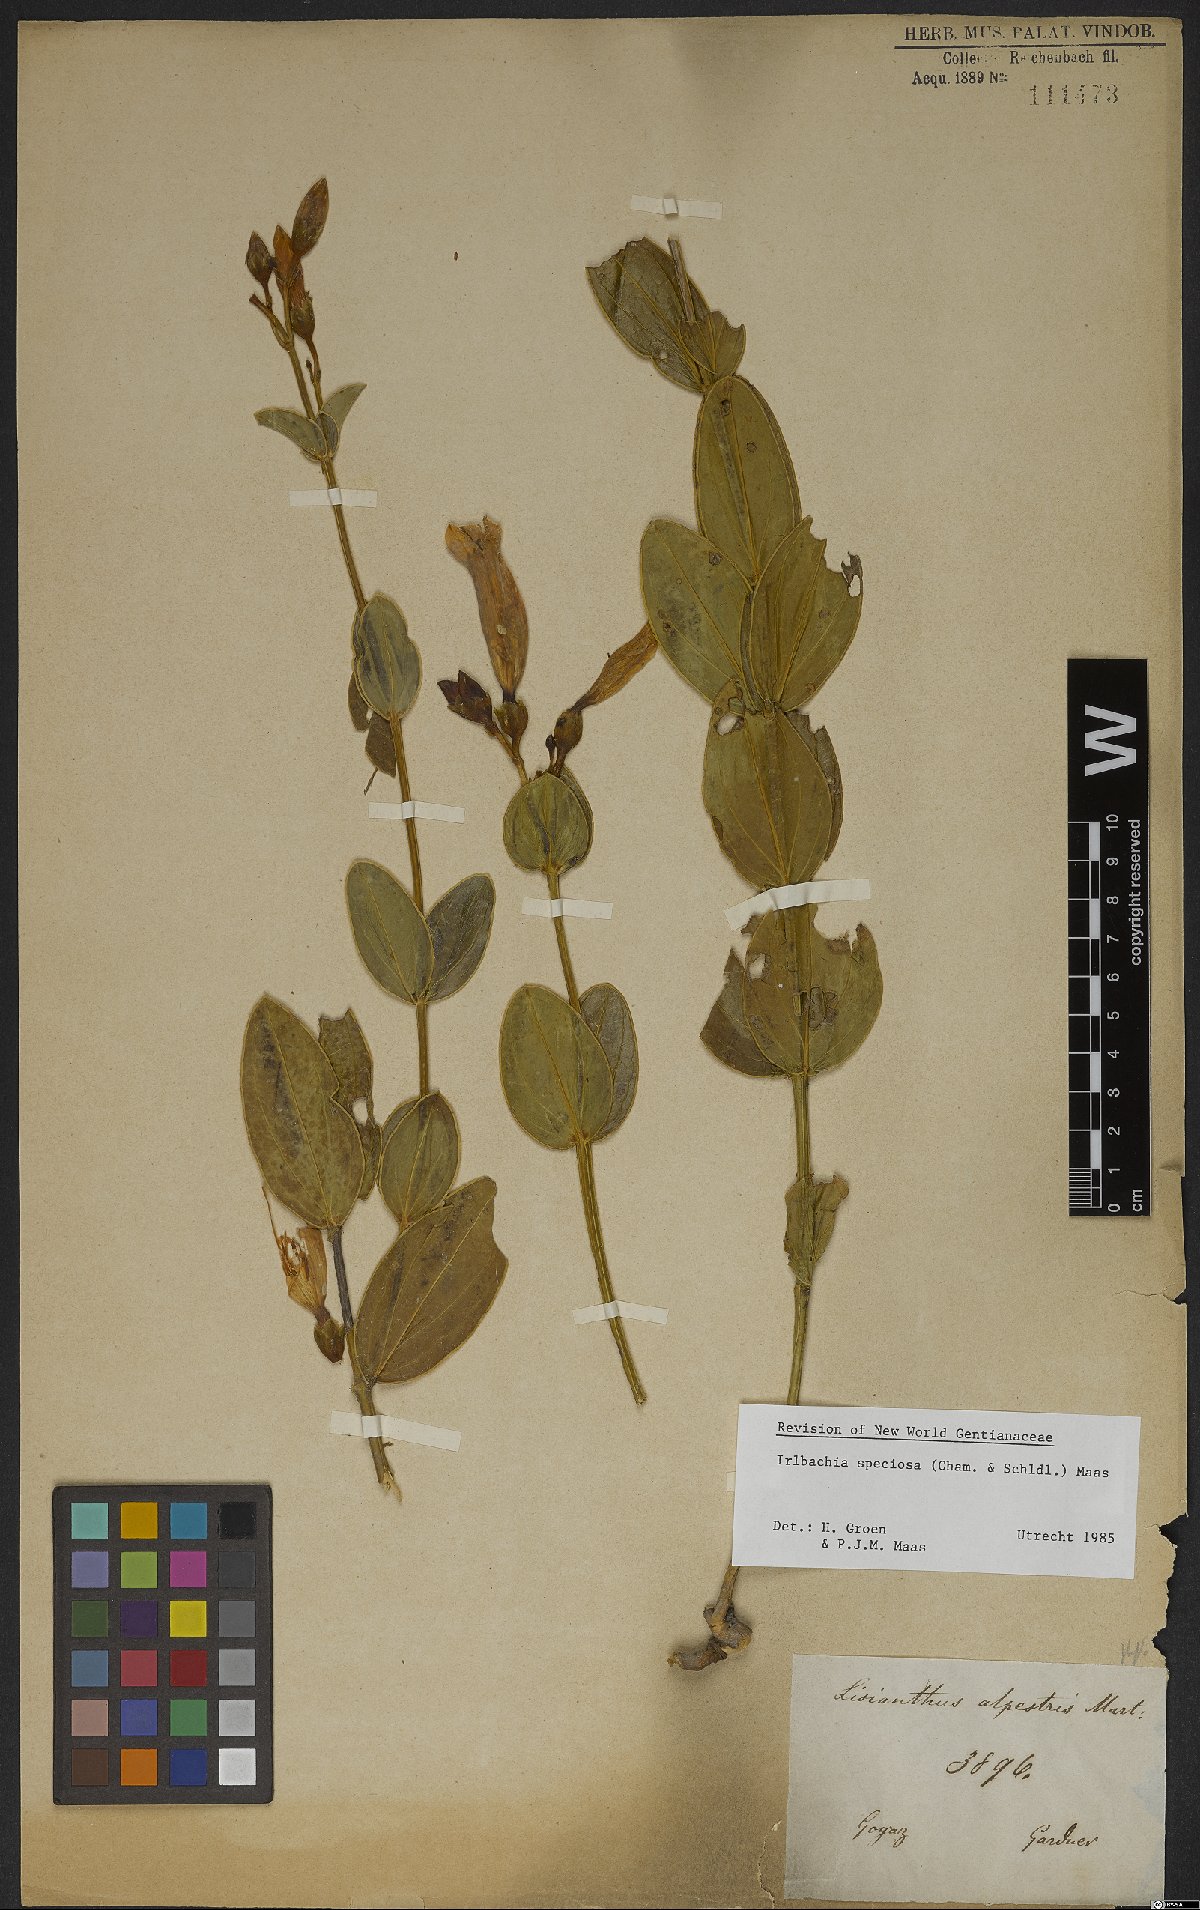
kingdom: Plantae
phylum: Tracheophyta
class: Magnoliopsida
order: Gentianales
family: Gentianaceae
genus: Calolisianthus
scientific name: Calolisianthus speciosus
